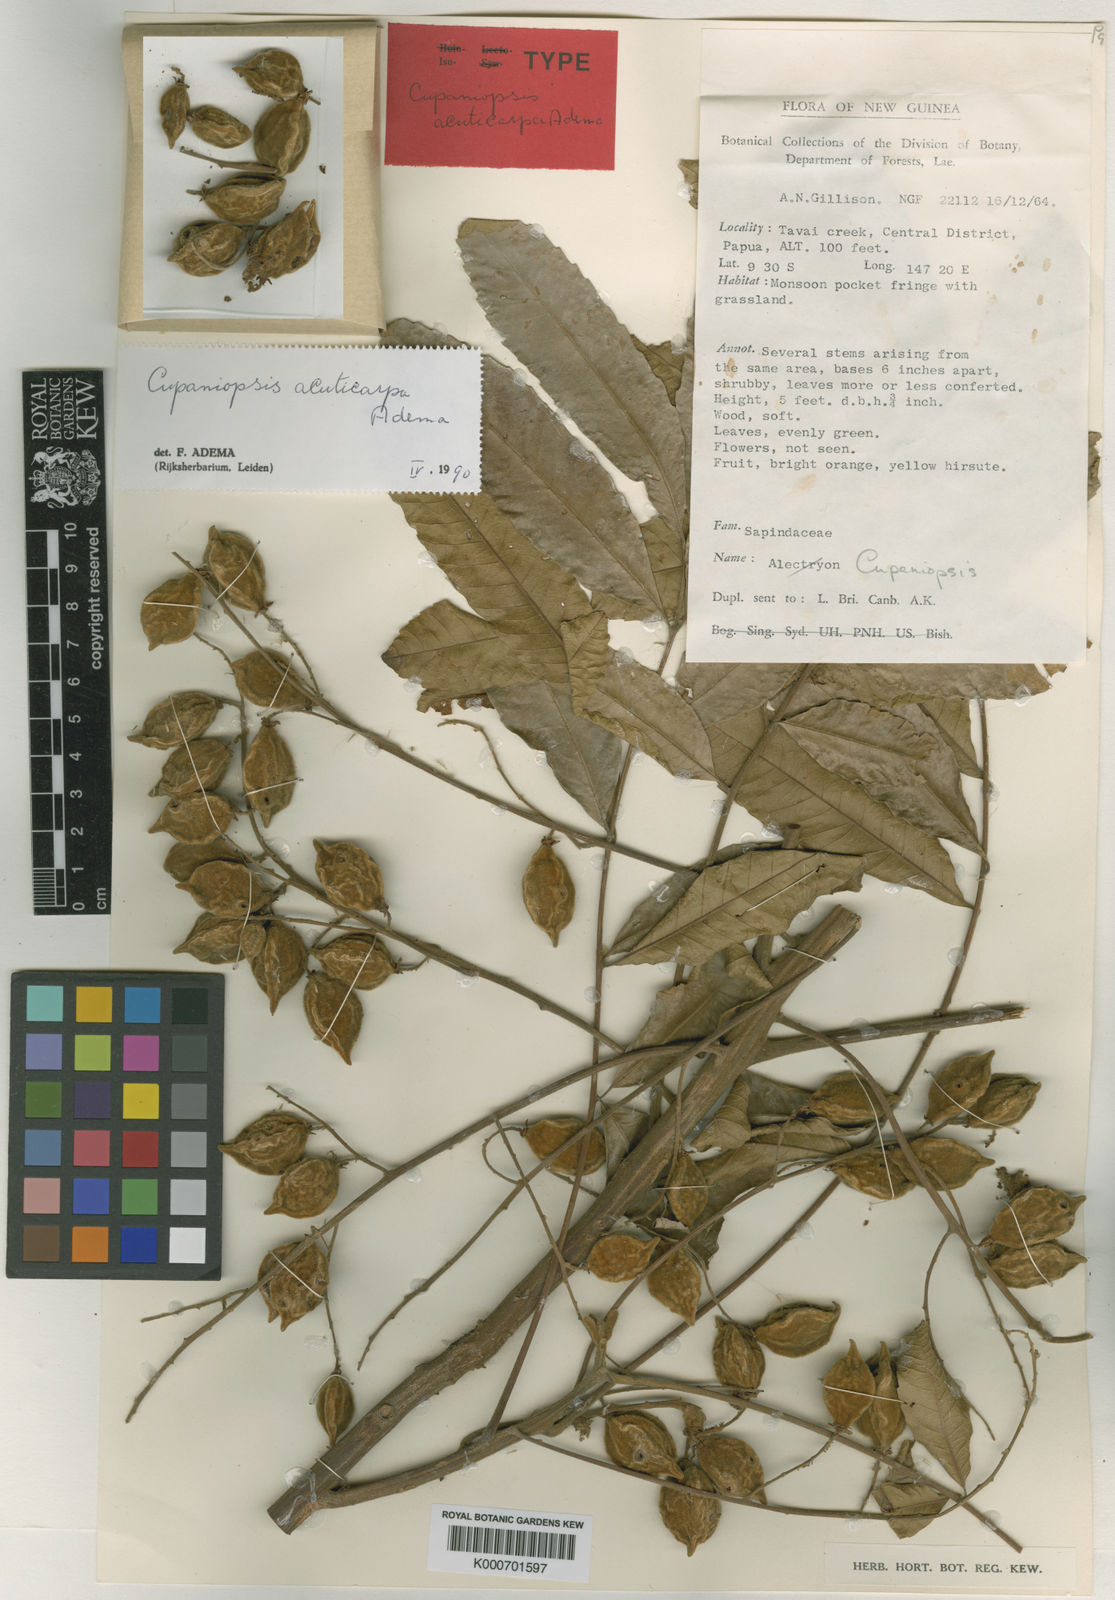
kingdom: Plantae
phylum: Tracheophyta
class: Magnoliopsida
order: Sapindales
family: Sapindaceae
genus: Cupaniopsis
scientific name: Cupaniopsis acuticarpa
